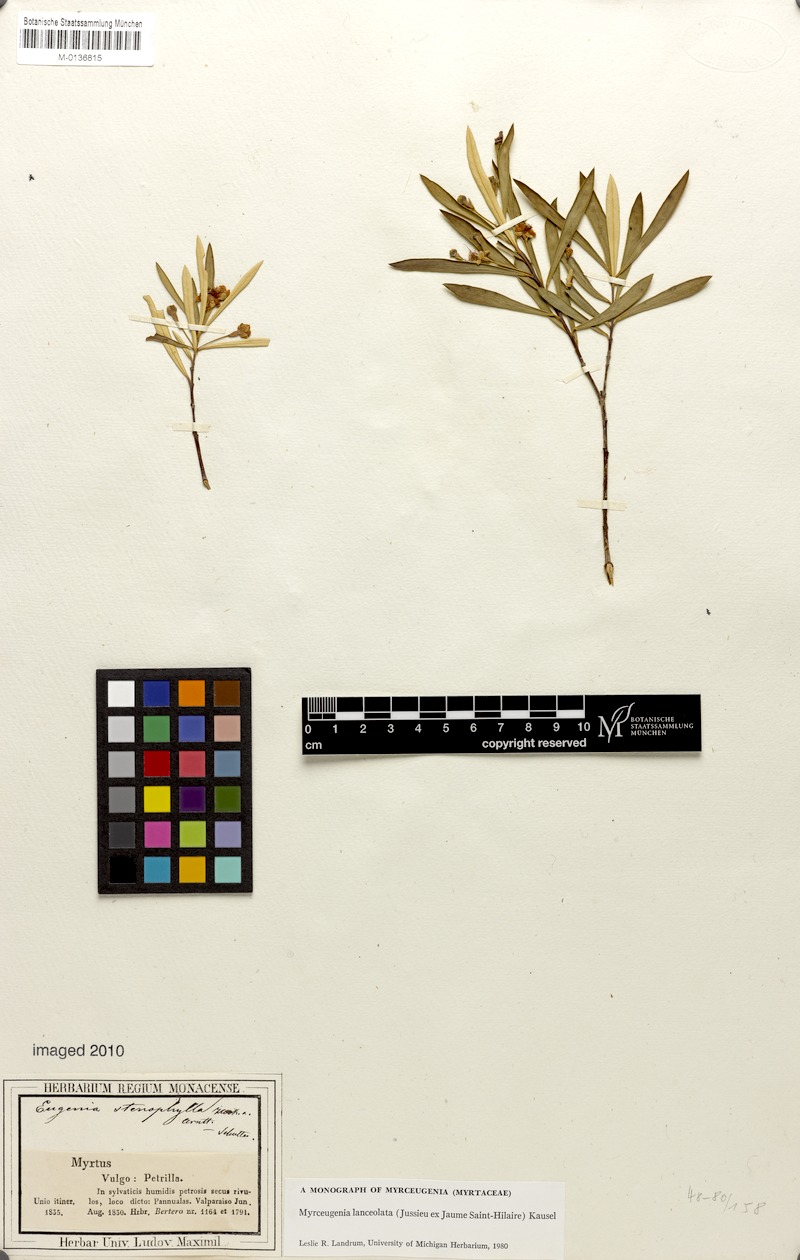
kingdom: Plantae
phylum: Tracheophyta
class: Magnoliopsida
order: Myrtales
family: Myrtaceae
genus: Myrceugenia
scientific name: Myrceugenia lanceolata
